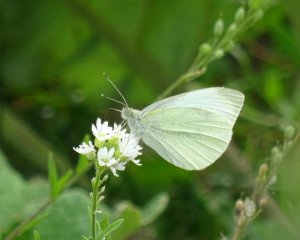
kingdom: Animalia
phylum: Arthropoda
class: Insecta
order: Lepidoptera
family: Pieridae
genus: Pieris
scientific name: Pieris rapae
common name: Cabbage White
